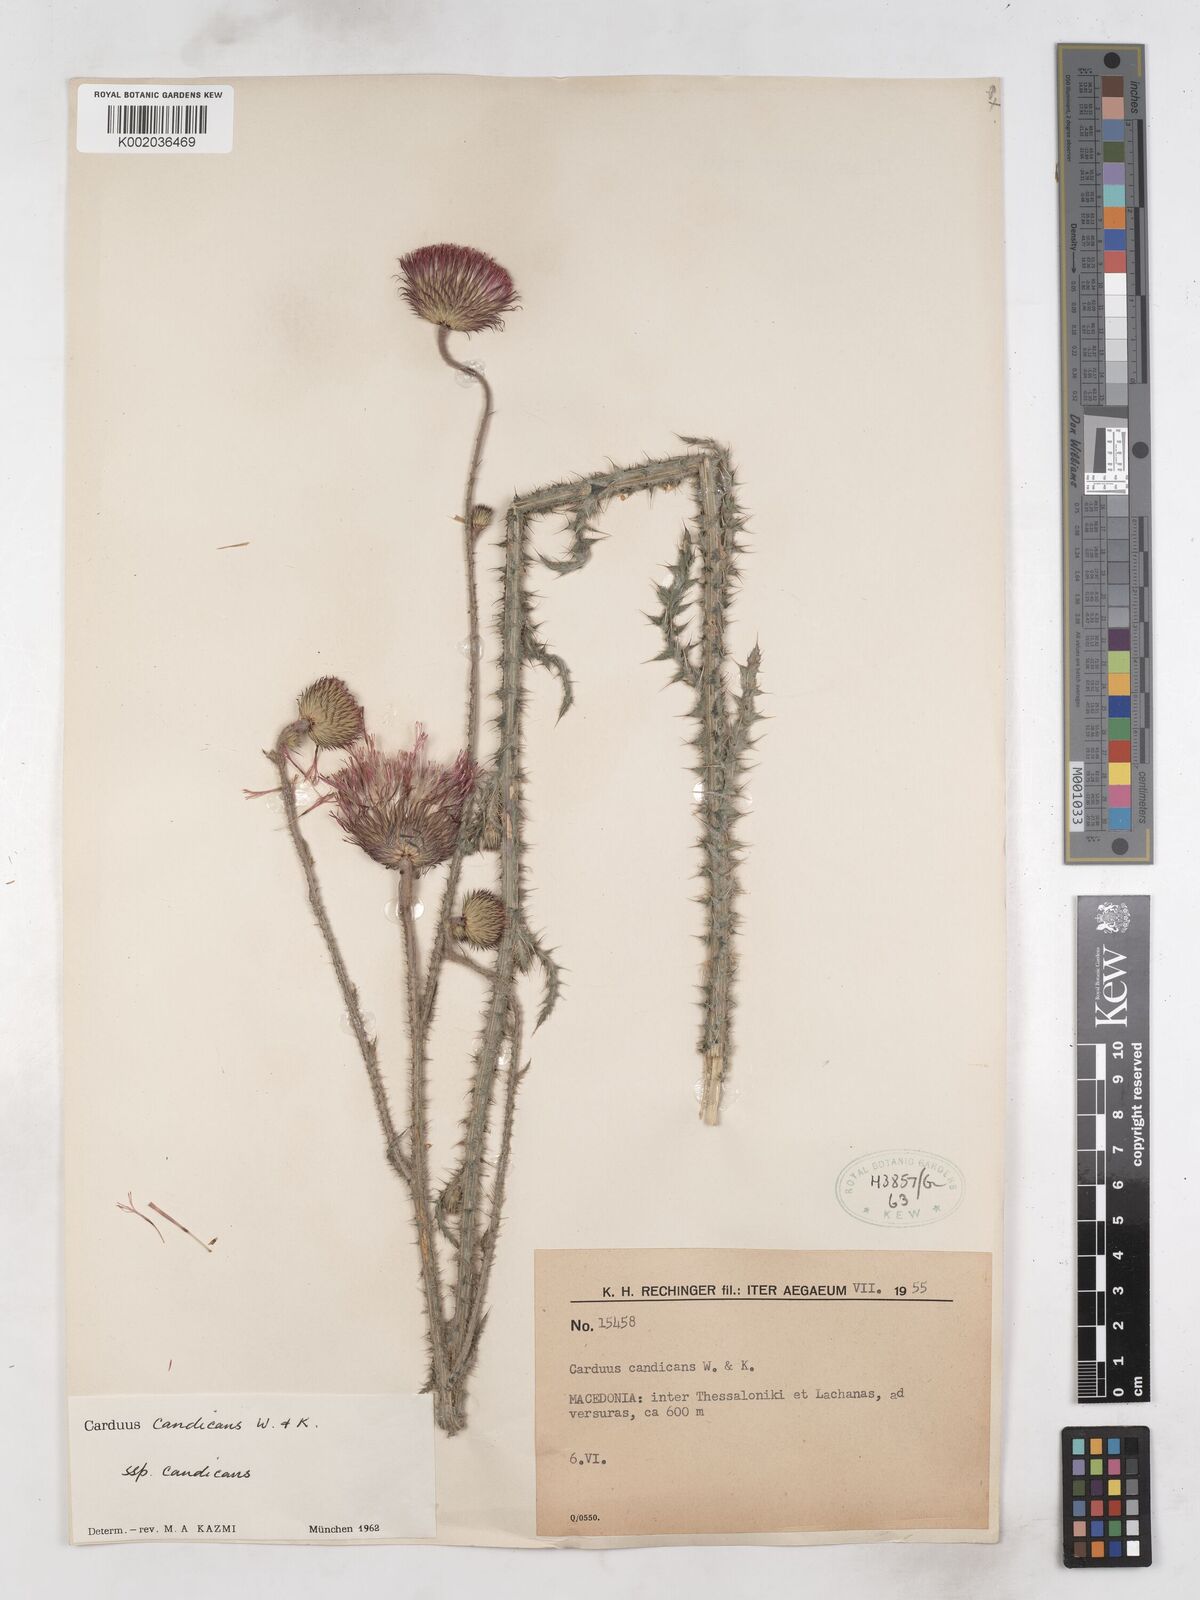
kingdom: Plantae
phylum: Tracheophyta
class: Magnoliopsida
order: Asterales
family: Asteraceae
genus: Carduus
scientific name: Carduus candicans
